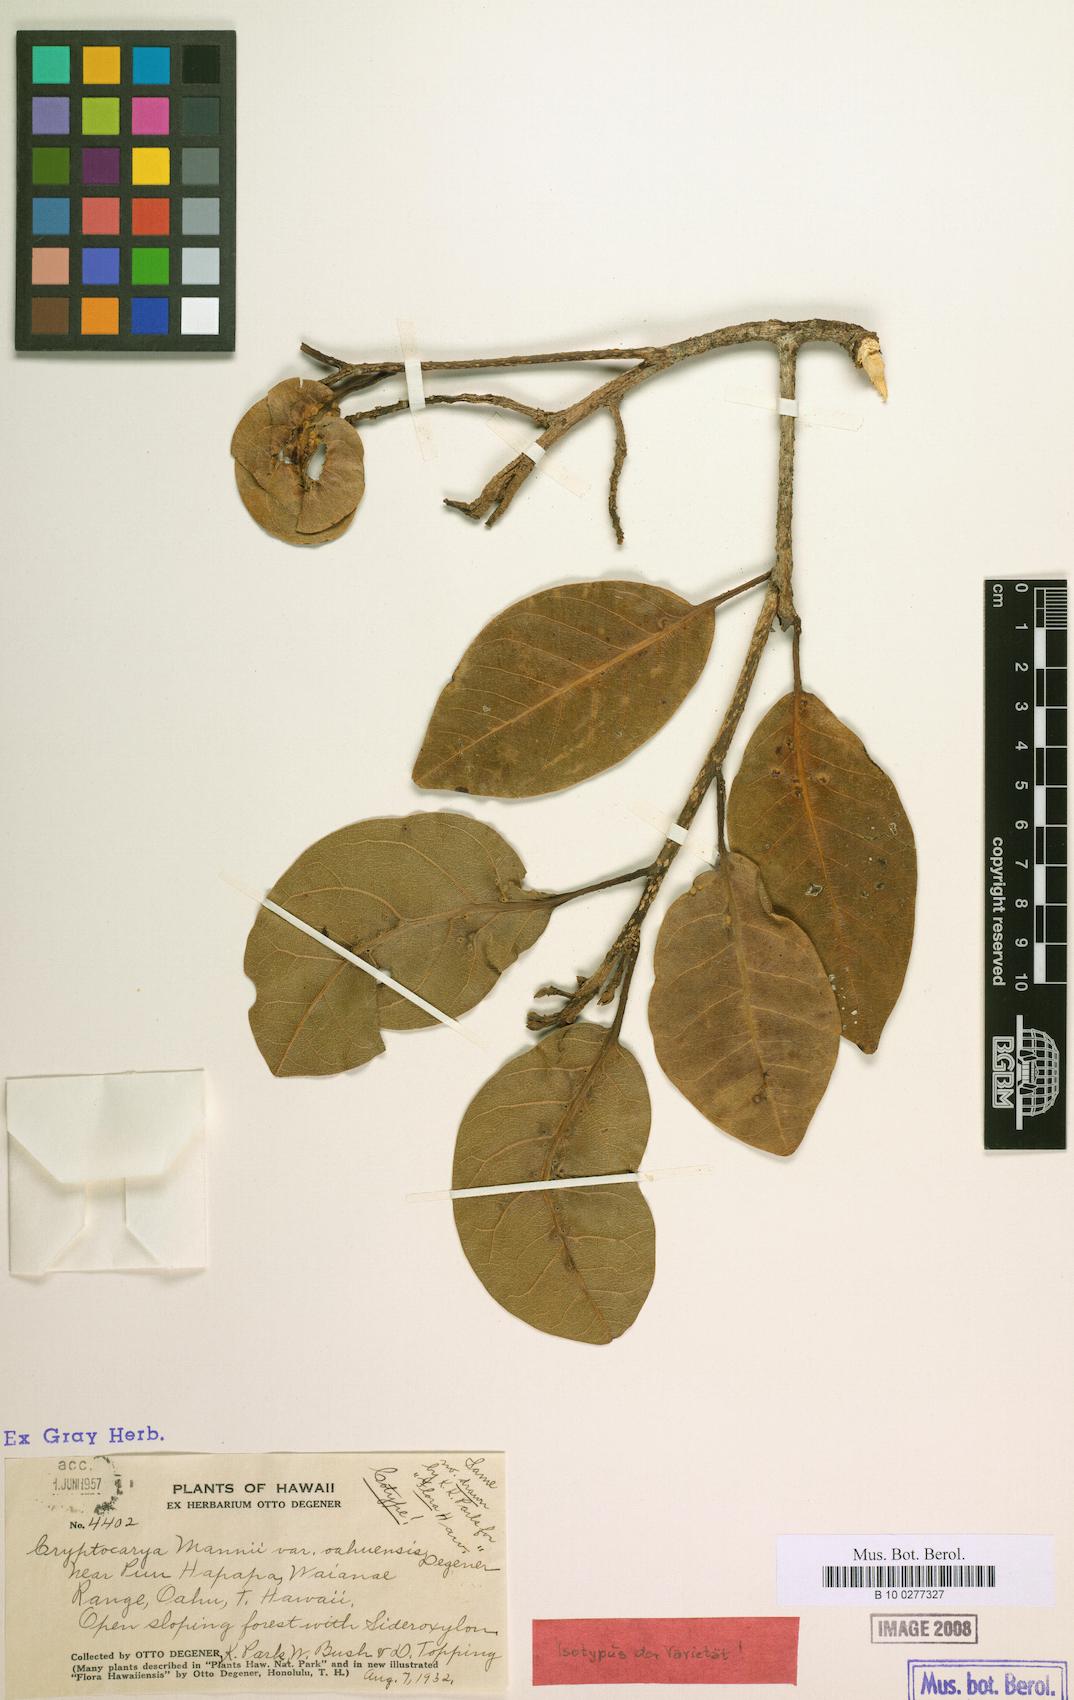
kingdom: Plantae
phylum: Tracheophyta
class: Magnoliopsida
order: Laurales
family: Lauraceae
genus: Cryptocarya
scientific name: Cryptocarya mannii
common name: Mann cryptocarya
